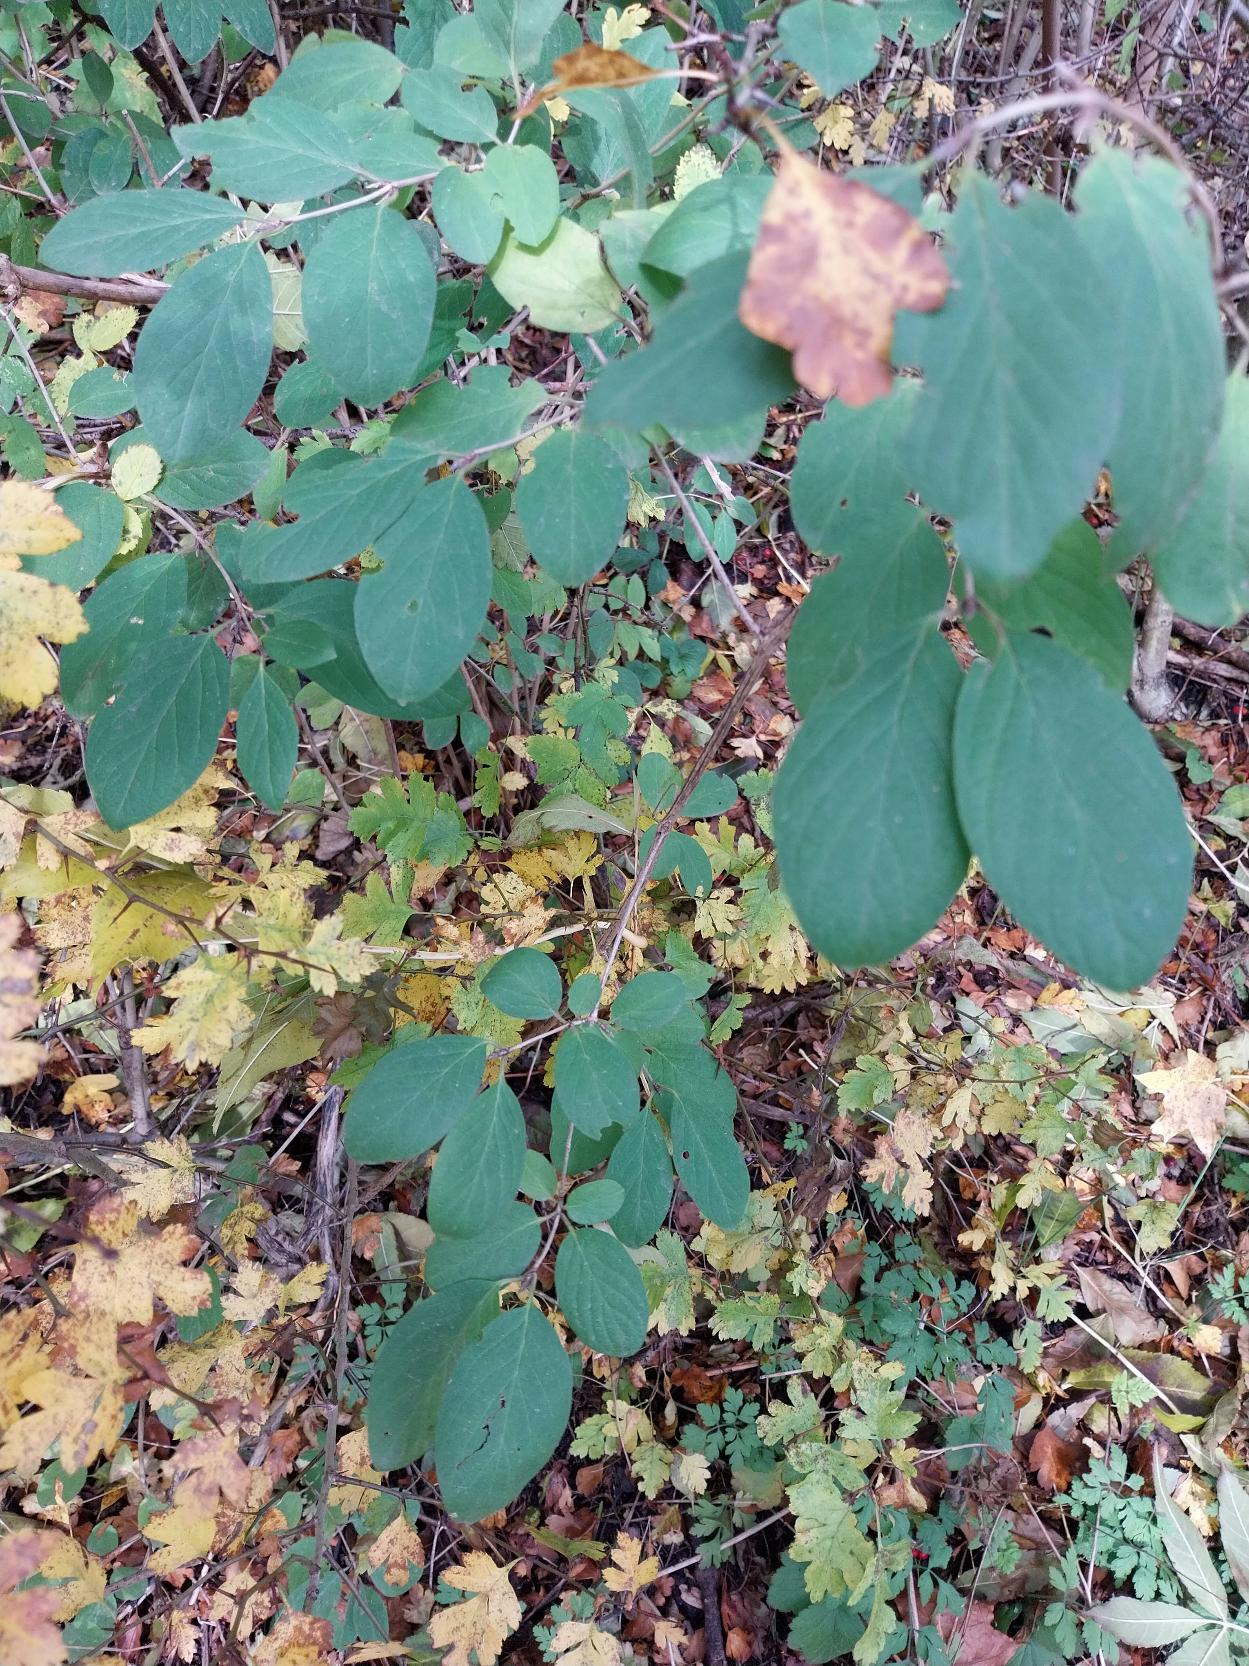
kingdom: Plantae
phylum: Tracheophyta
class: Magnoliopsida
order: Dipsacales
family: Caprifoliaceae
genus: Lonicera
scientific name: Lonicera xylosteum
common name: Dunet gedeblad
